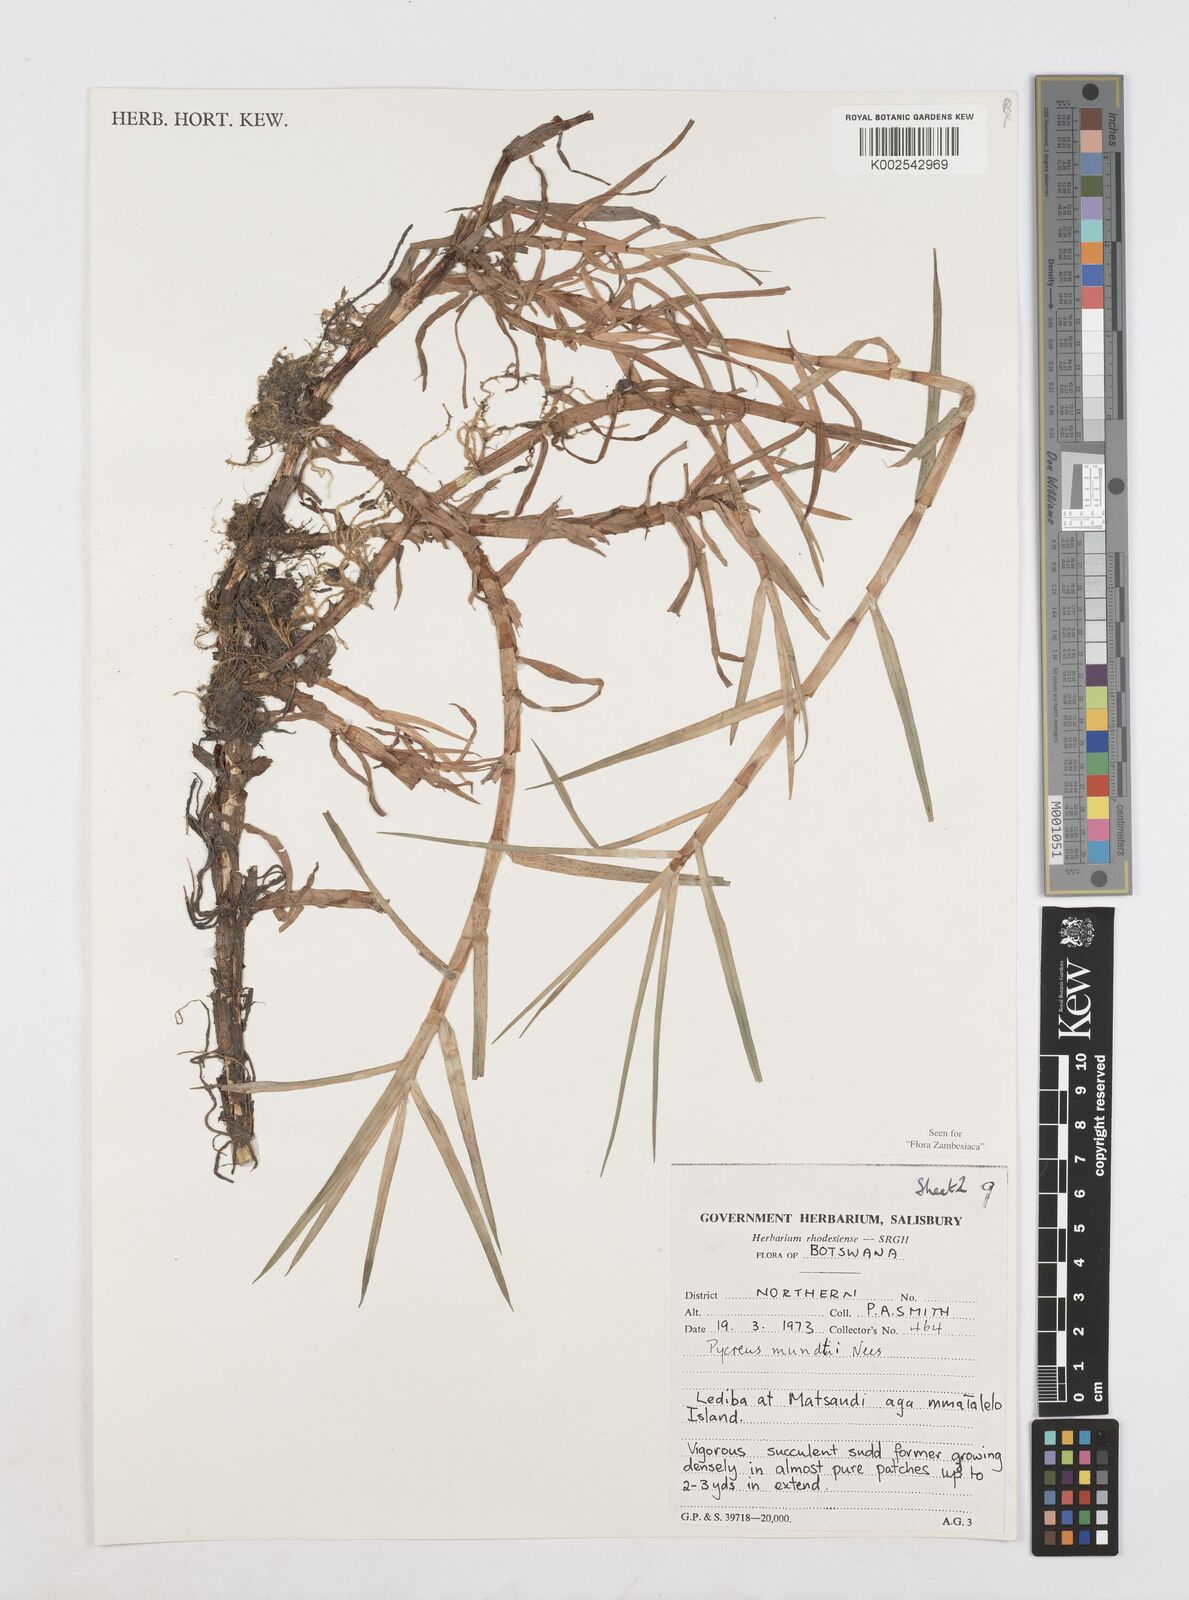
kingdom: Plantae
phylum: Tracheophyta
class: Liliopsida
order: Poales
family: Cyperaceae
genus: Cyperus
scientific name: Cyperus mundii
